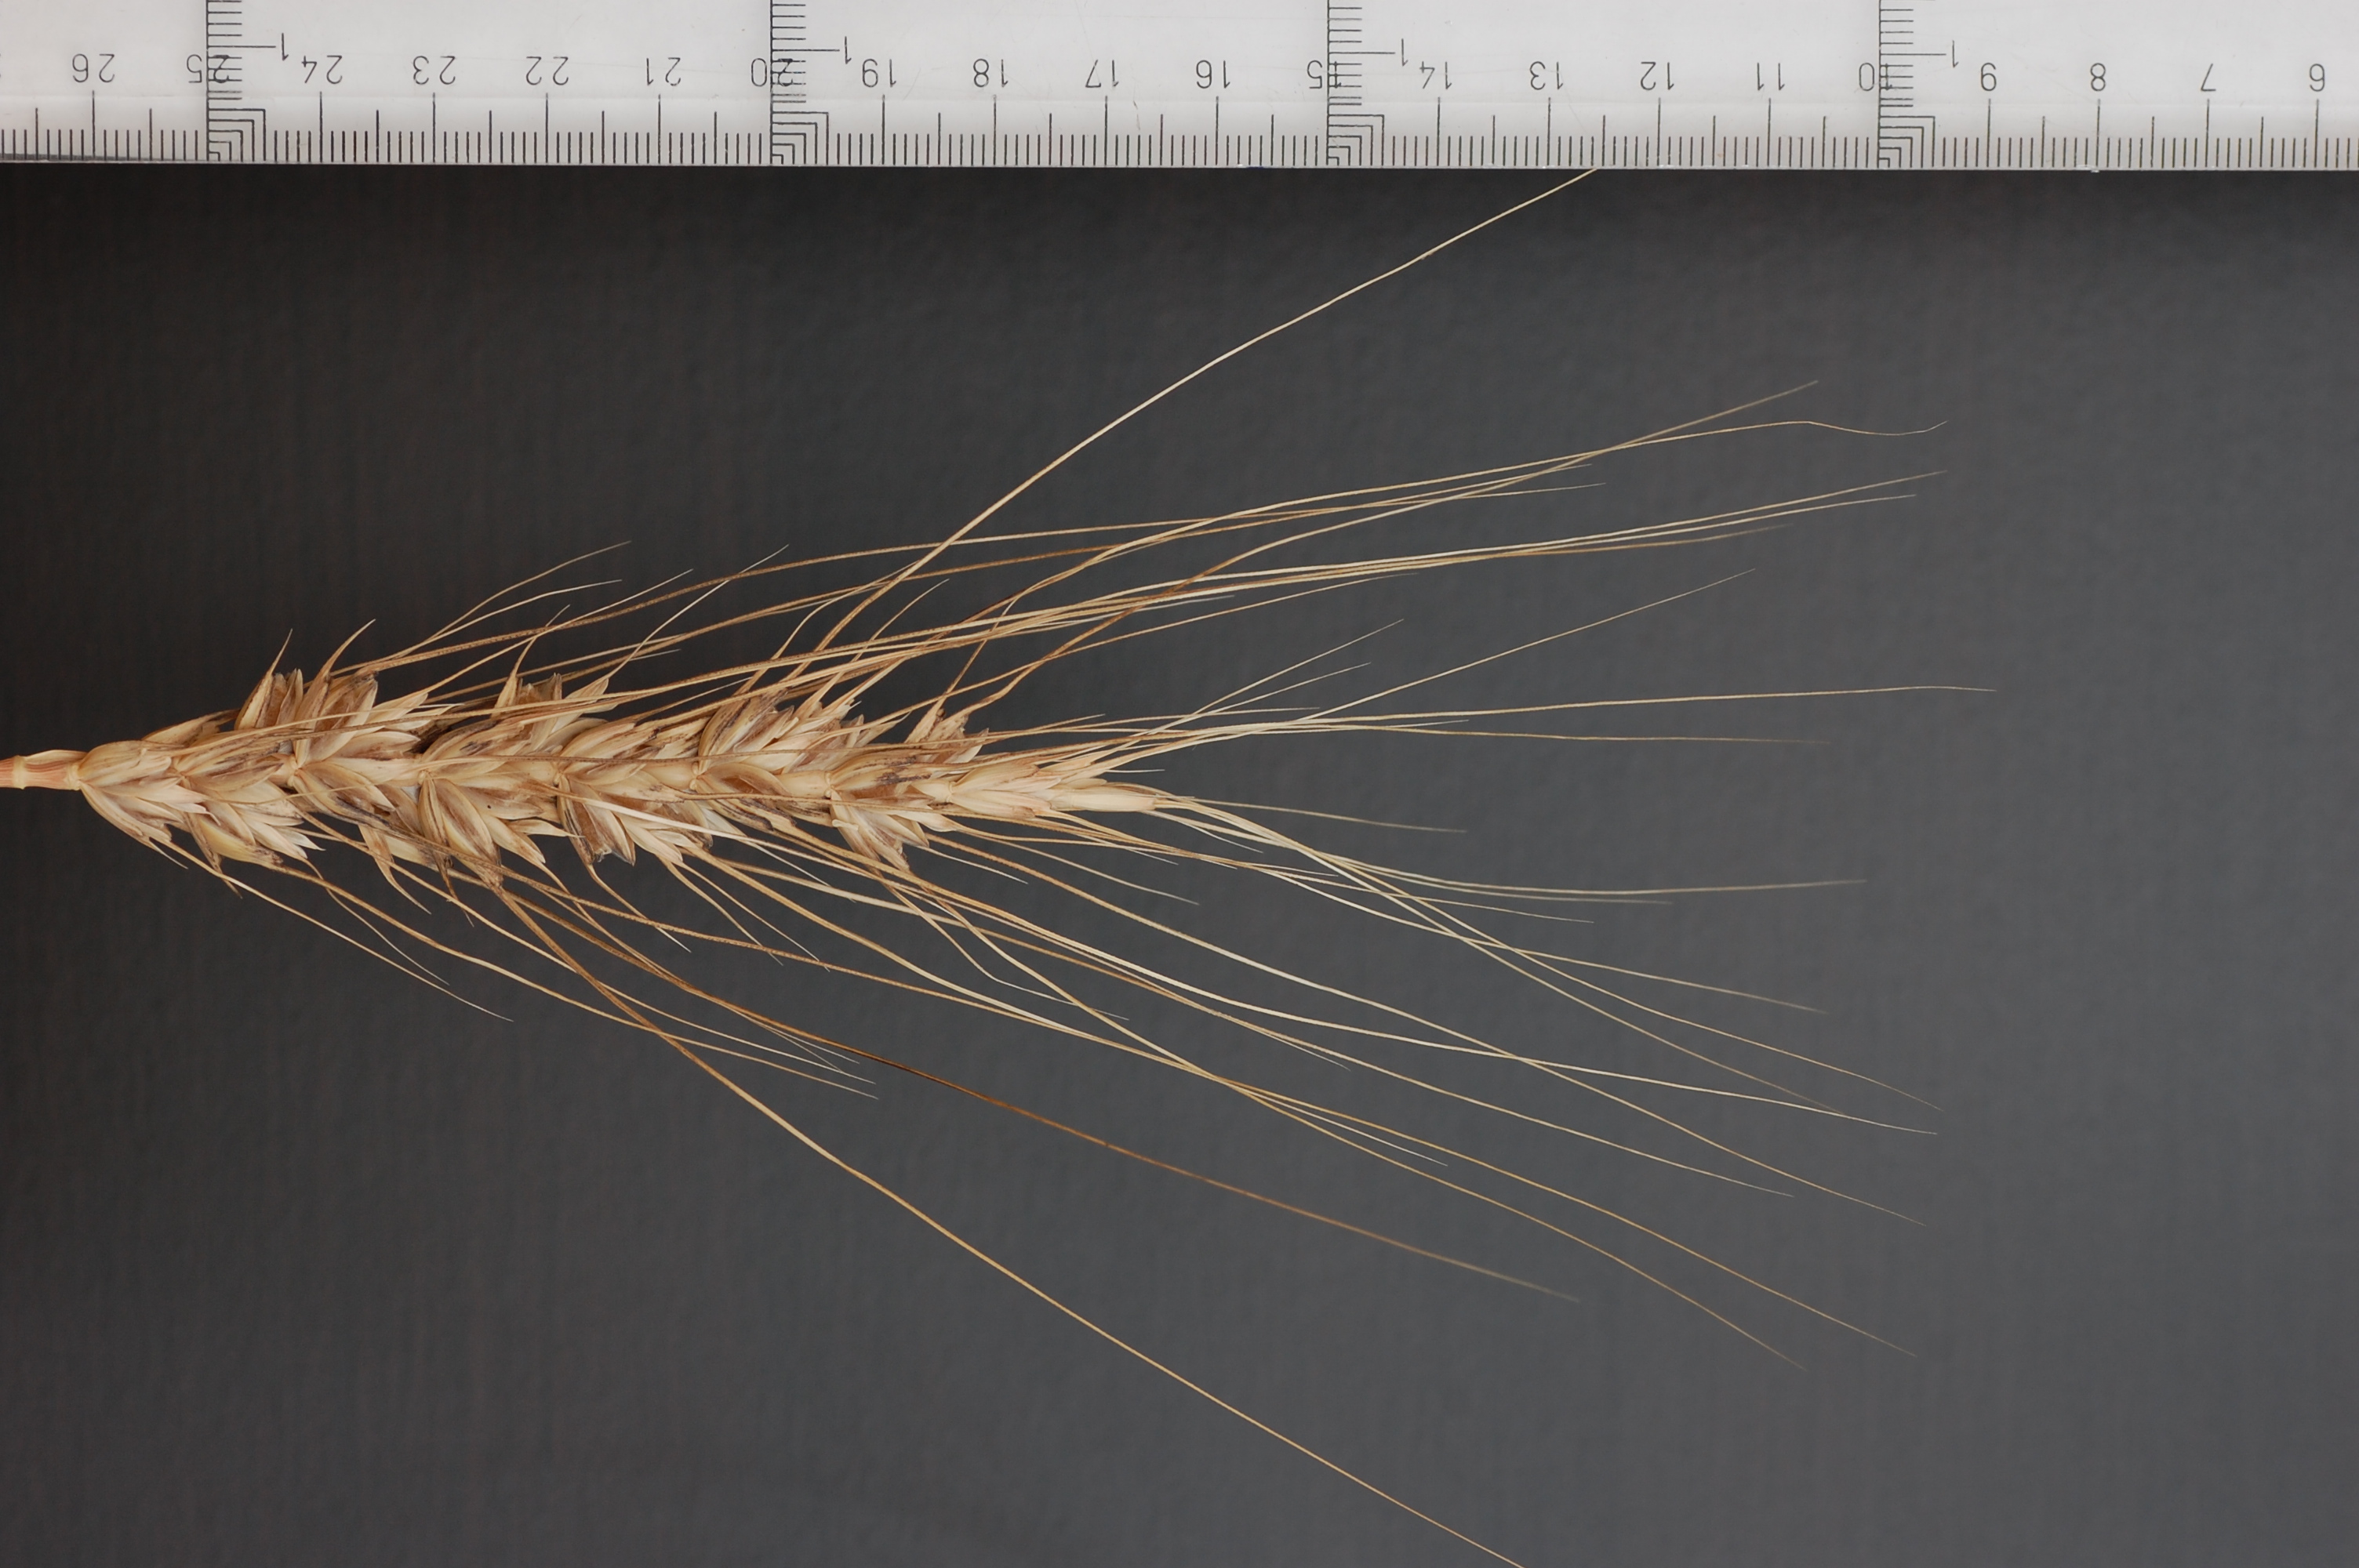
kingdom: Plantae
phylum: Tracheophyta
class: Liliopsida
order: Poales
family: Poaceae
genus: Triticum
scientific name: Triticum aestivum
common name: Common wheat
